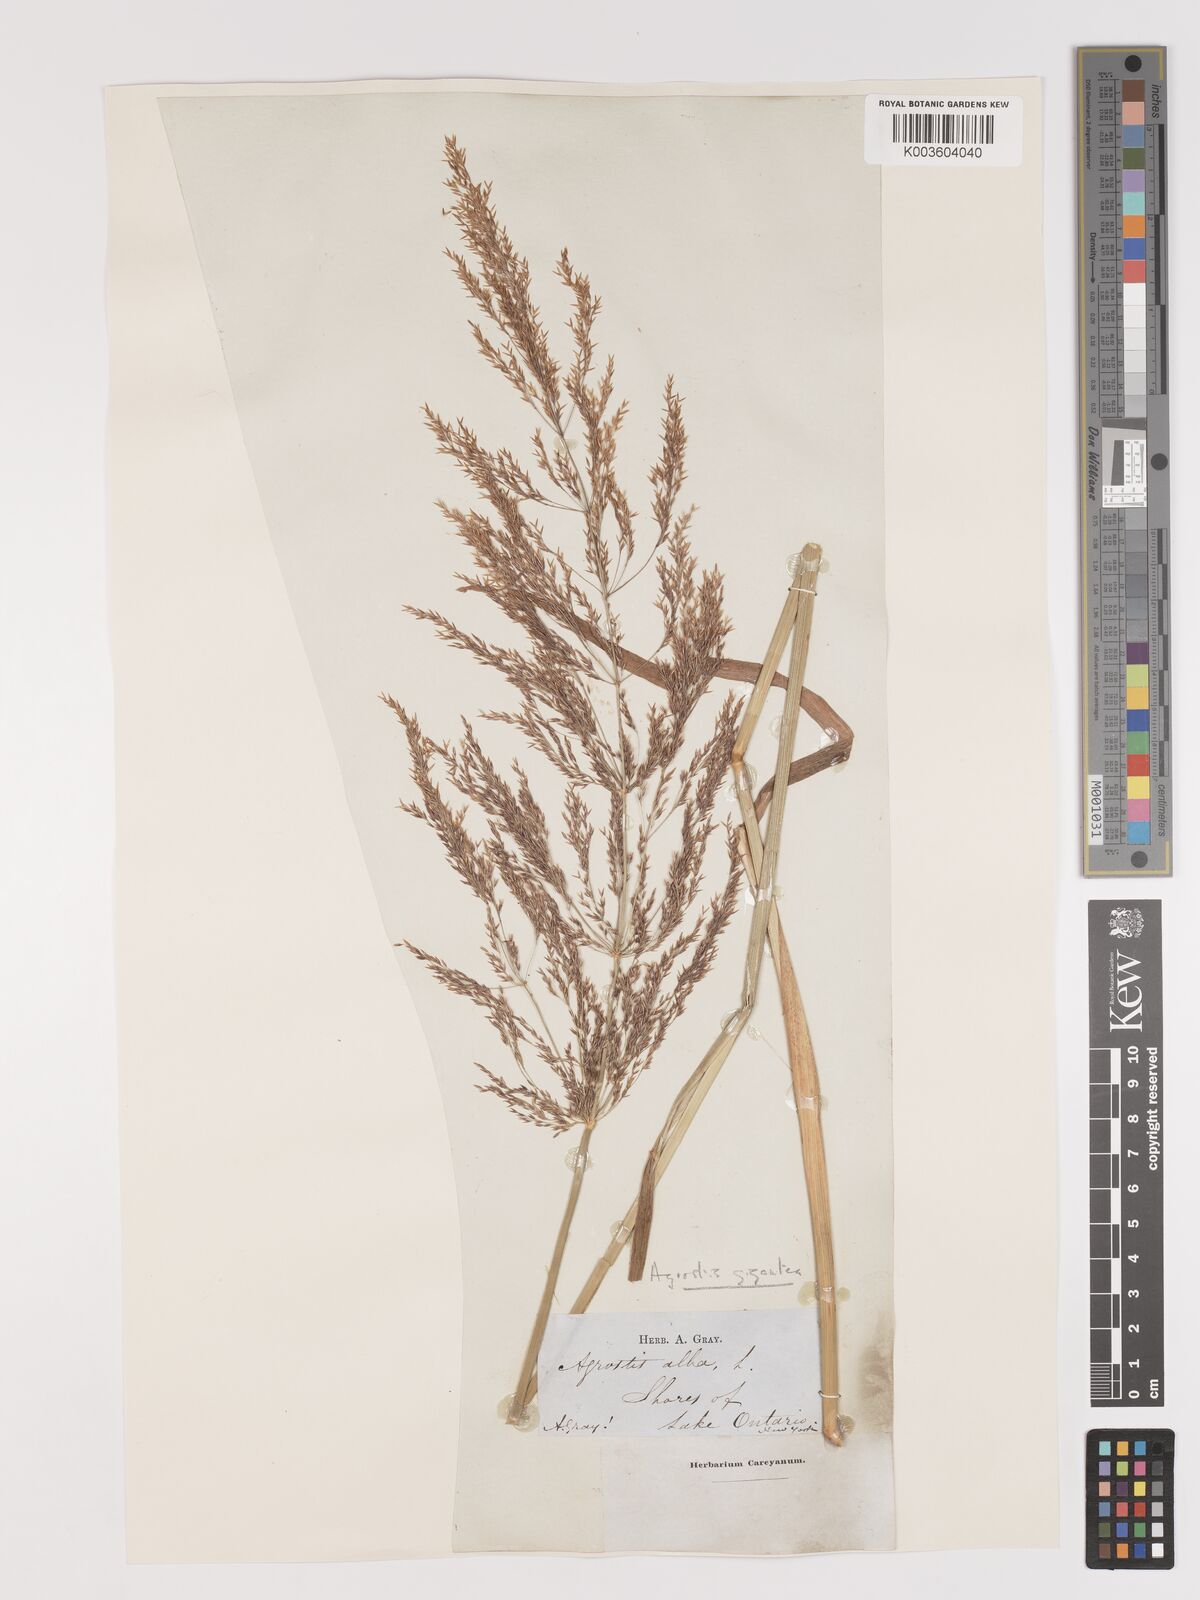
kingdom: Plantae
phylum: Tracheophyta
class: Liliopsida
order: Poales
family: Poaceae
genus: Agrostis
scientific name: Agrostis gigantea
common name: Black bent
